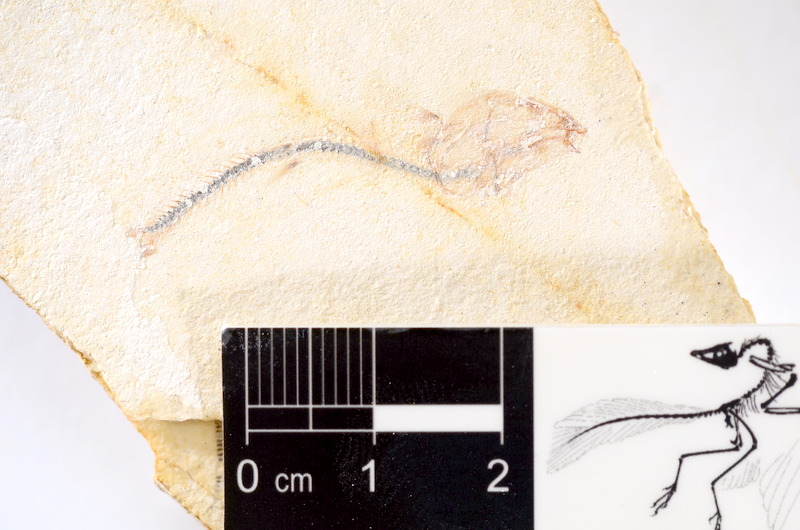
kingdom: Animalia
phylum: Chordata
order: Salmoniformes
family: Orthogonikleithridae
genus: Orthogonikleithrus
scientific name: Orthogonikleithrus hoelli
